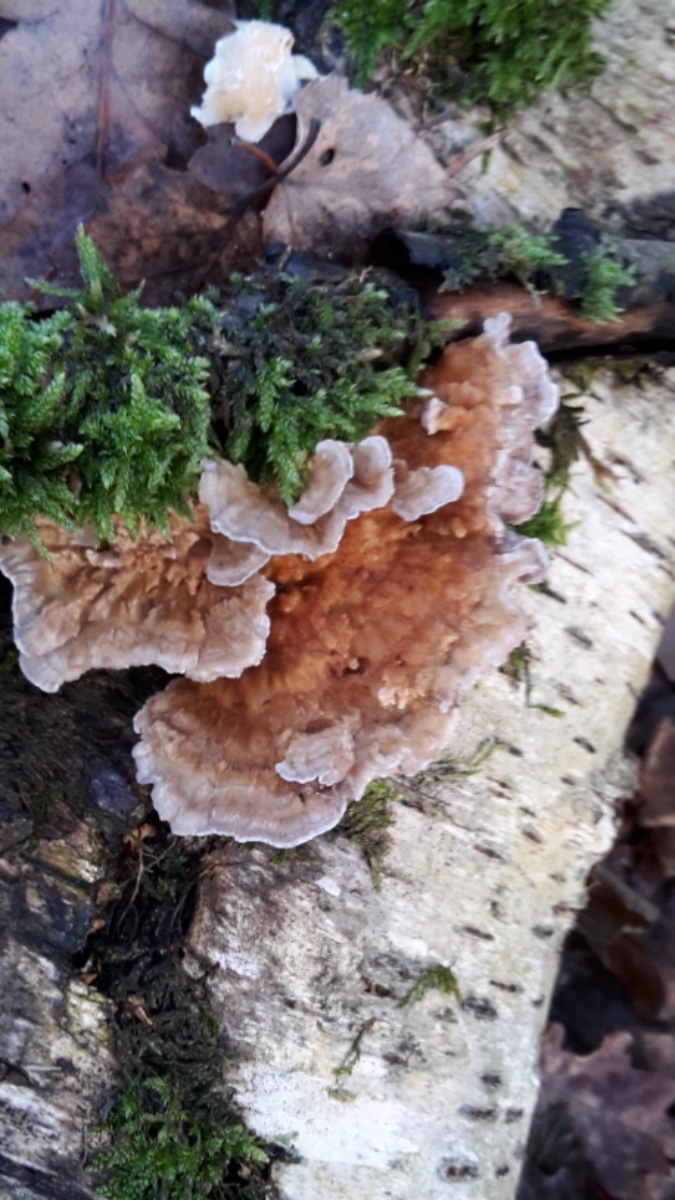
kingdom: Fungi
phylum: Basidiomycota
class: Agaricomycetes
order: Polyporales
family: Polyporaceae
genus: Trametes
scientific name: Trametes ochracea
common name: bæltet læderporesvamp
